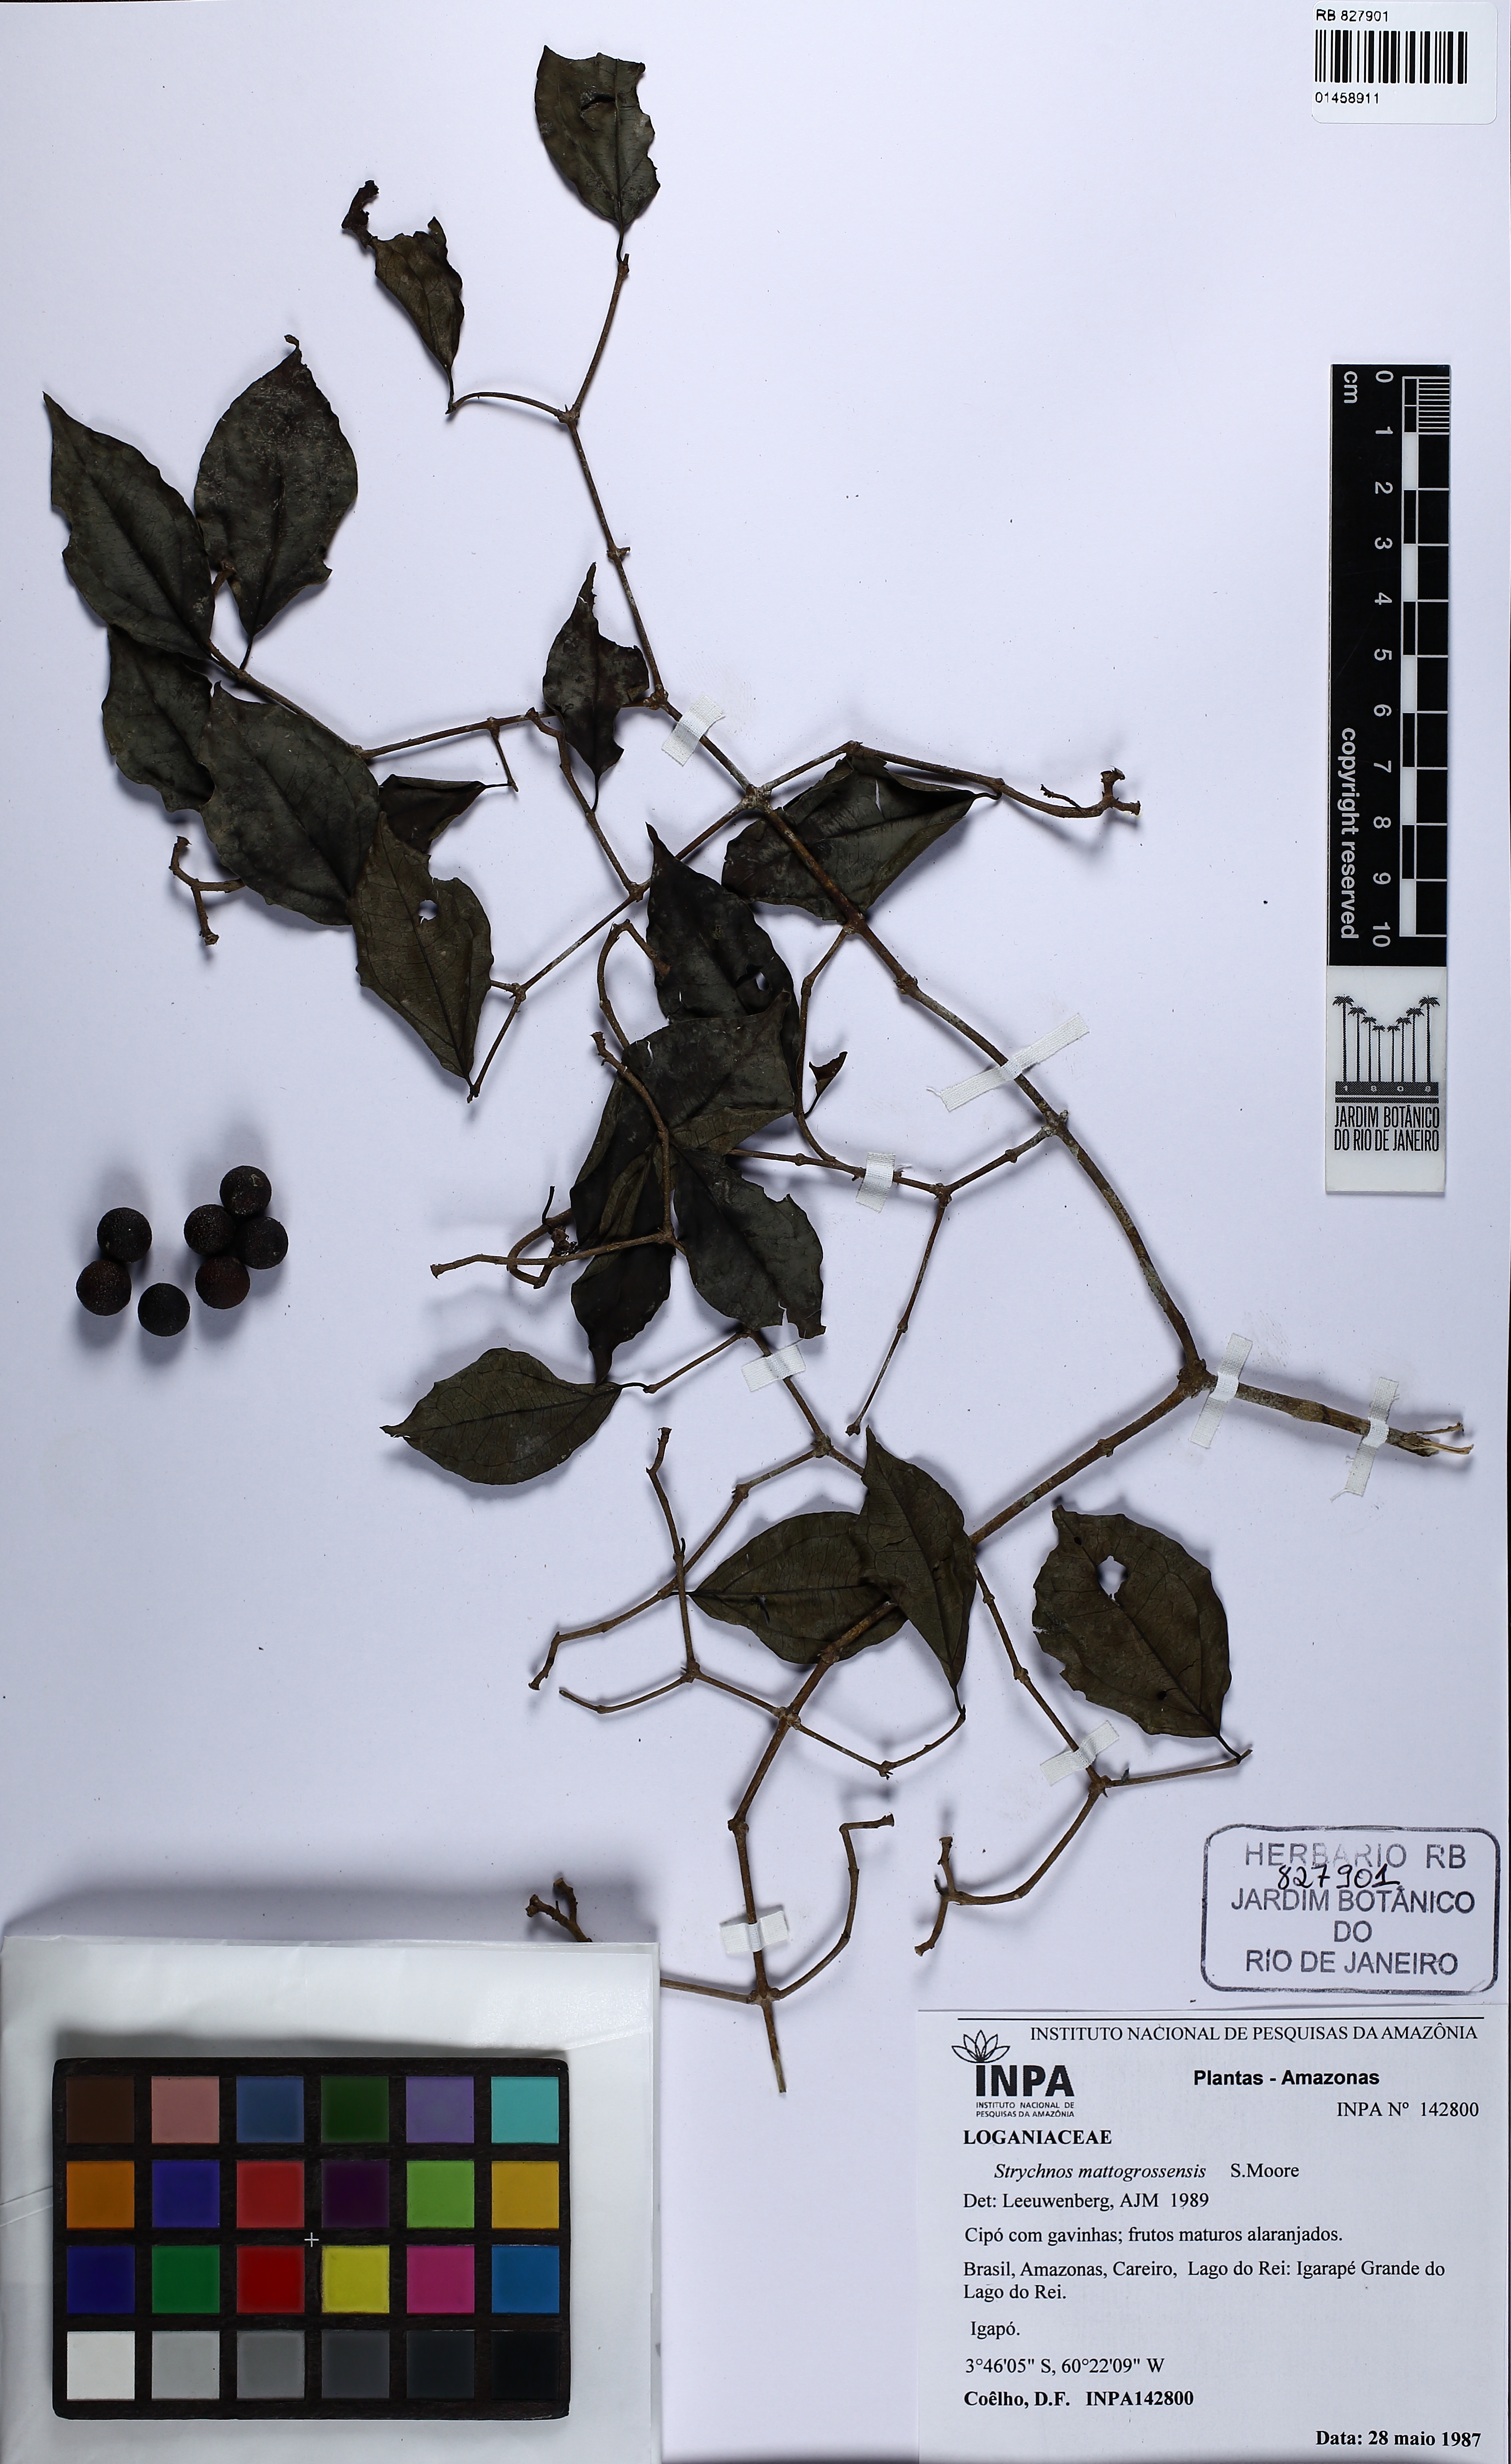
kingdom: Plantae
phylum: Tracheophyta
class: Magnoliopsida
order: Gentianales
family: Loganiaceae
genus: Strychnos
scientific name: Strychnos mattogrossensis
